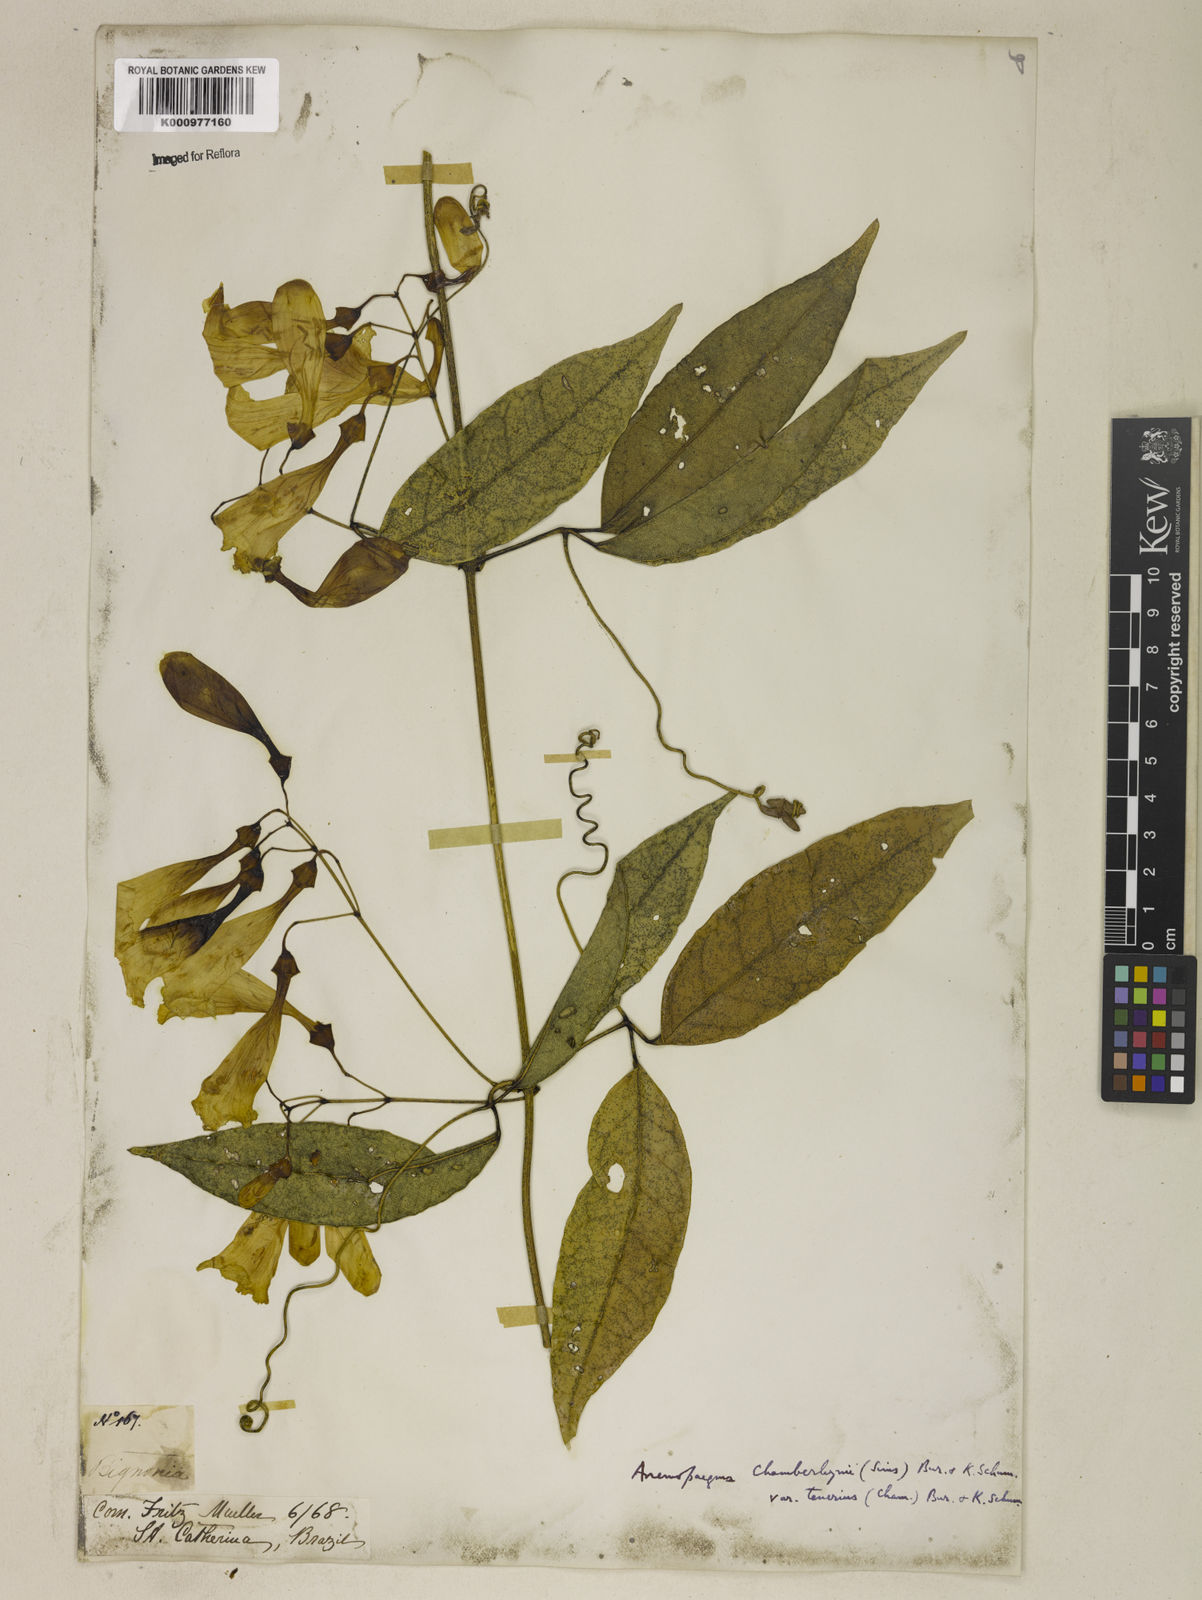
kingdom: Plantae
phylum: Tracheophyta
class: Magnoliopsida
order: Lamiales
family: Bignoniaceae
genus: Anemopaegma
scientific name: Anemopaegma chamberlaynii
